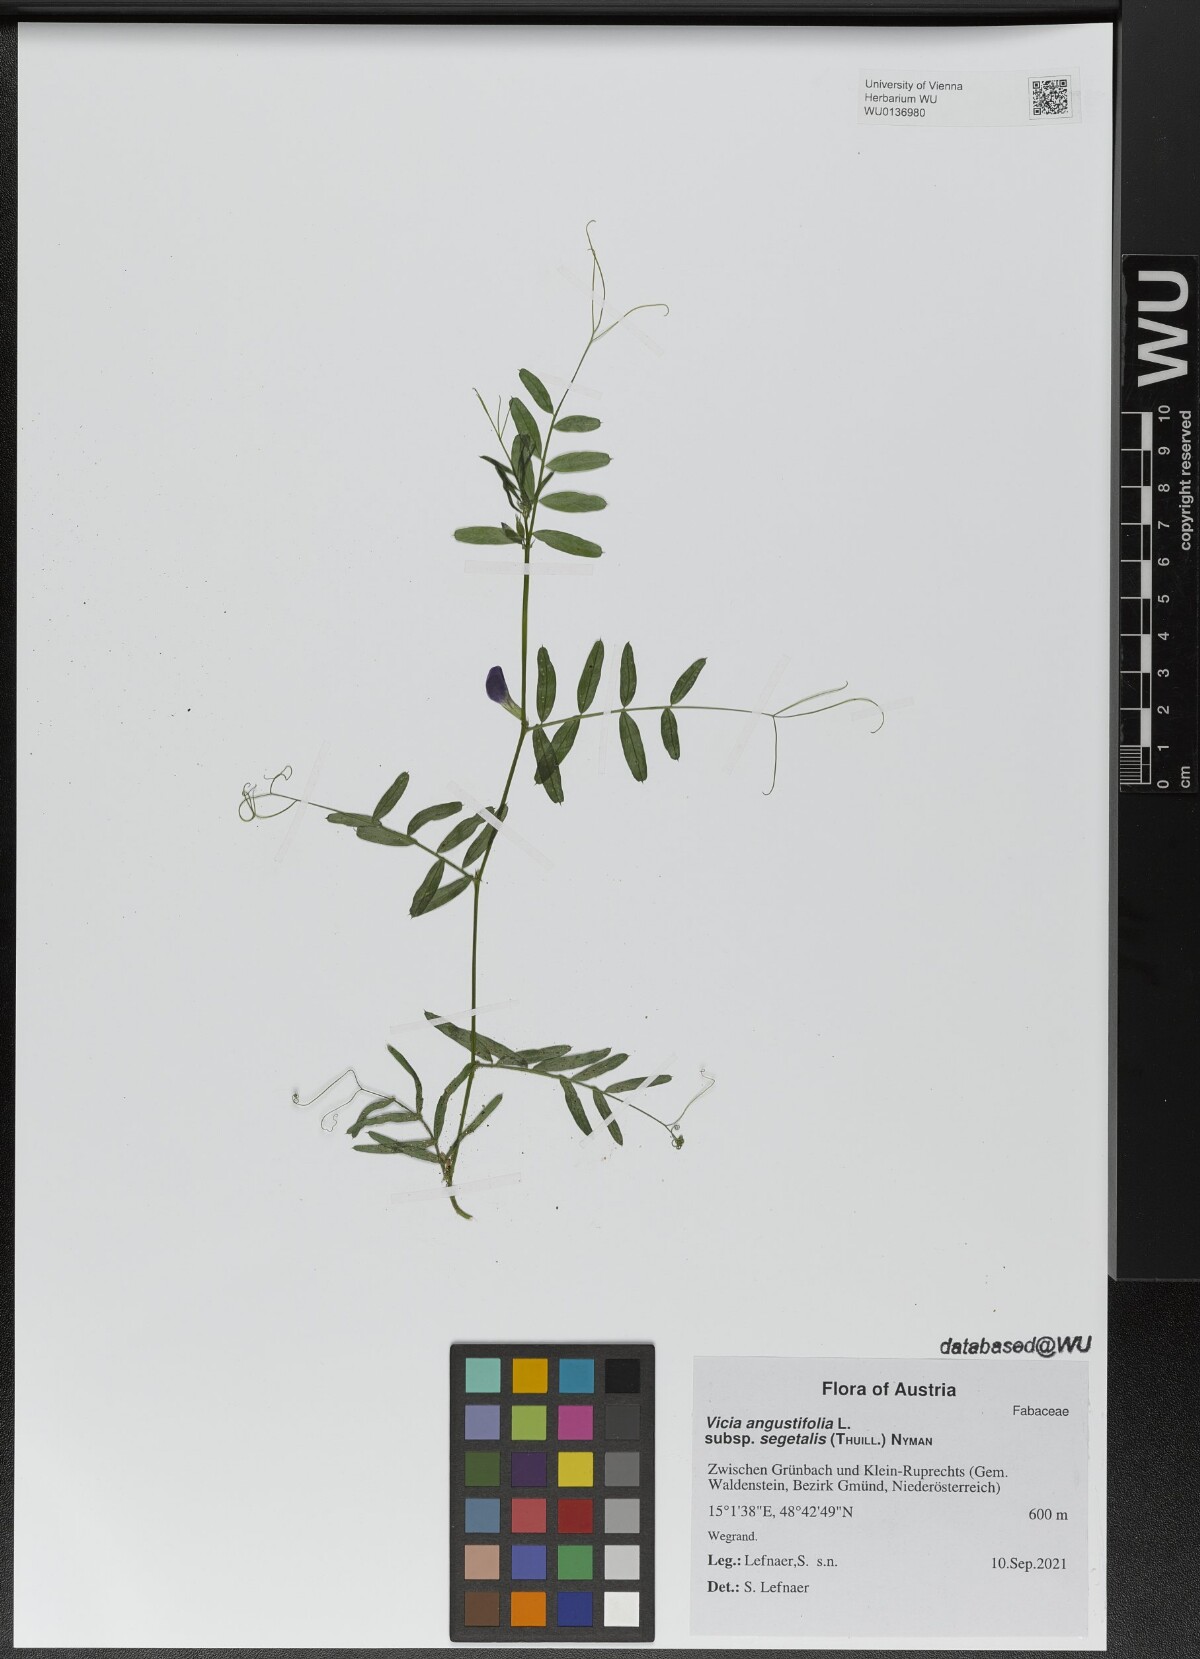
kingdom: Plantae
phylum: Tracheophyta
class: Magnoliopsida
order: Fabales
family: Fabaceae
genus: Vicia
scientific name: Vicia sativa
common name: Garden vetch
